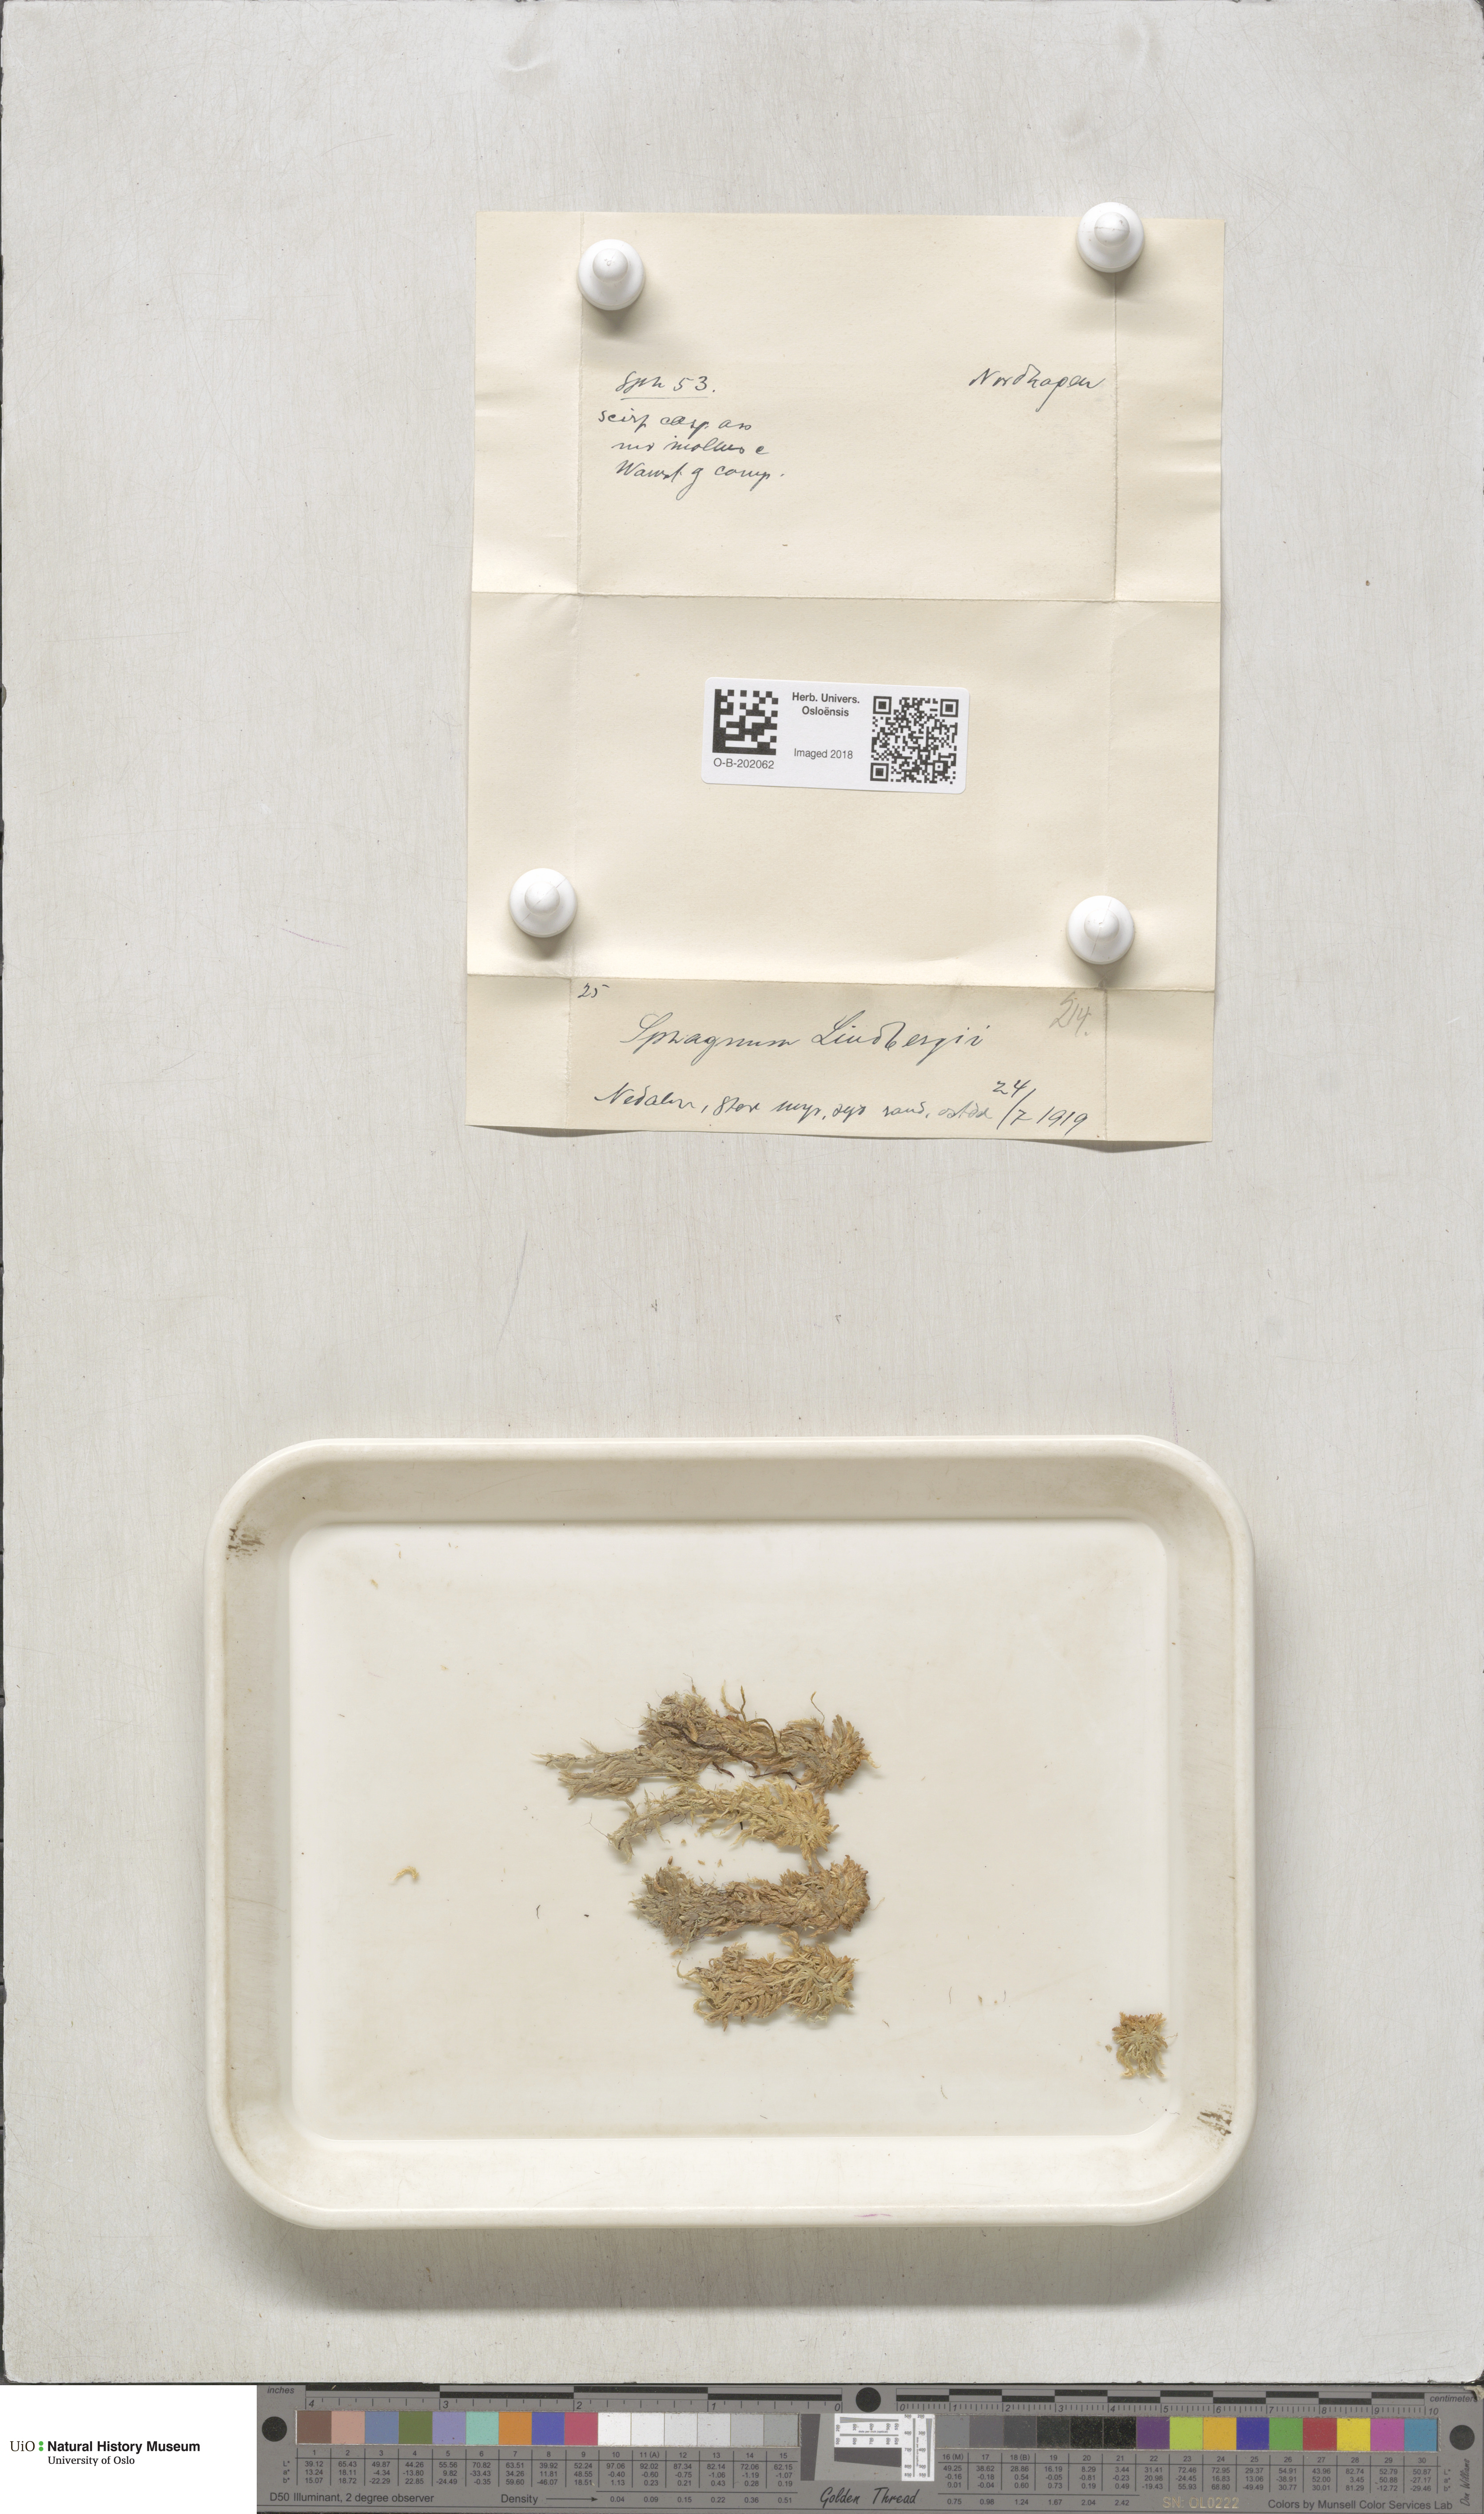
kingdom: Plantae
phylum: Bryophyta
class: Sphagnopsida
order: Sphagnales
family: Sphagnaceae
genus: Sphagnum
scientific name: Sphagnum lindbergii
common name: Lindberg's peat moss
